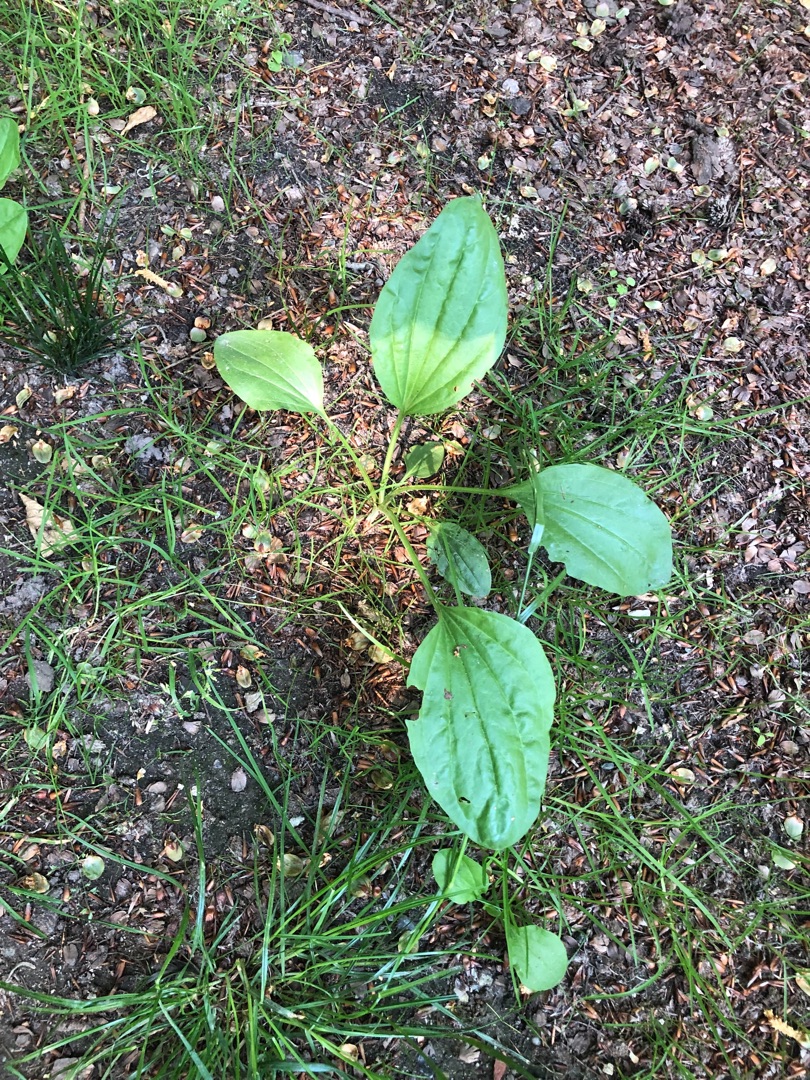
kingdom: Plantae
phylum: Tracheophyta
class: Magnoliopsida
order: Lamiales
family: Plantaginaceae
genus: Plantago
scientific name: Plantago major
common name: Glat vejbred
